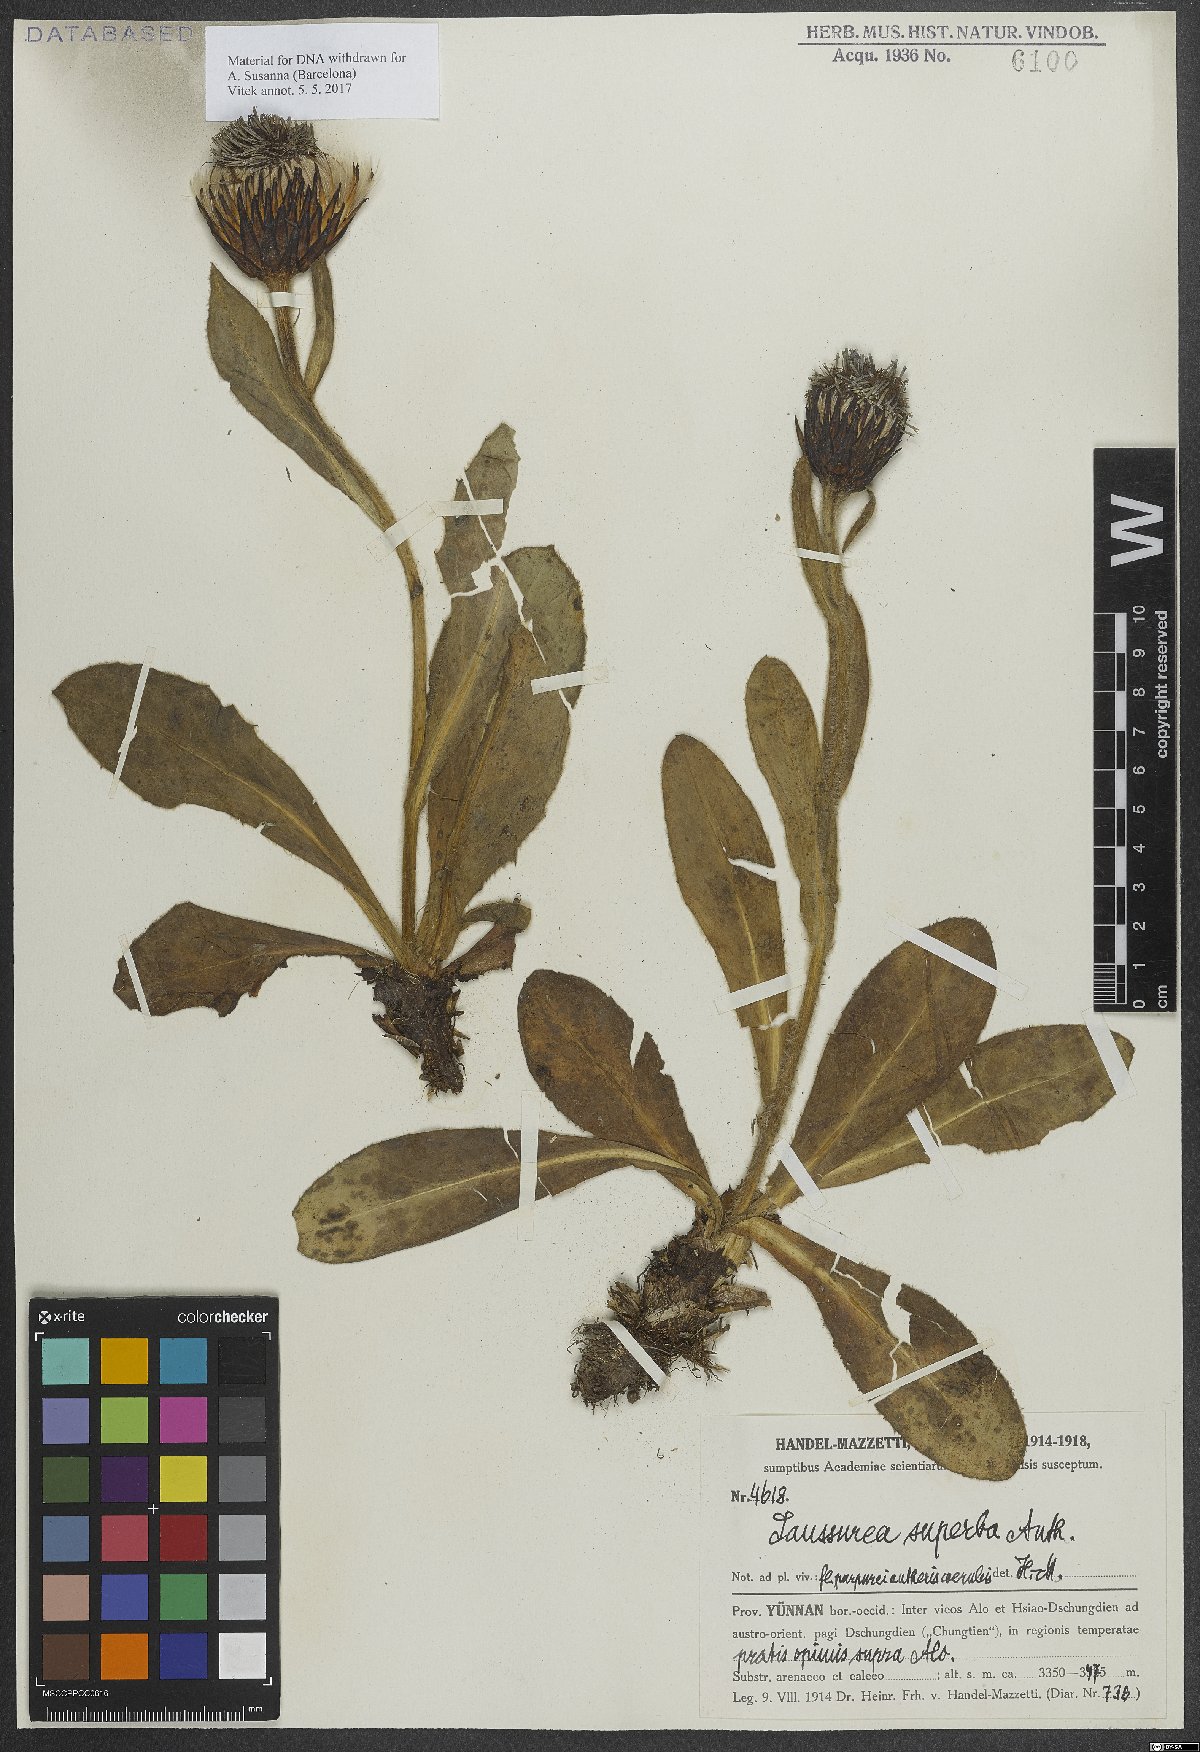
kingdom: Plantae
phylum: Tracheophyta
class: Magnoliopsida
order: Asterales
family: Asteraceae
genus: Saussurea
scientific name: Saussurea superba
